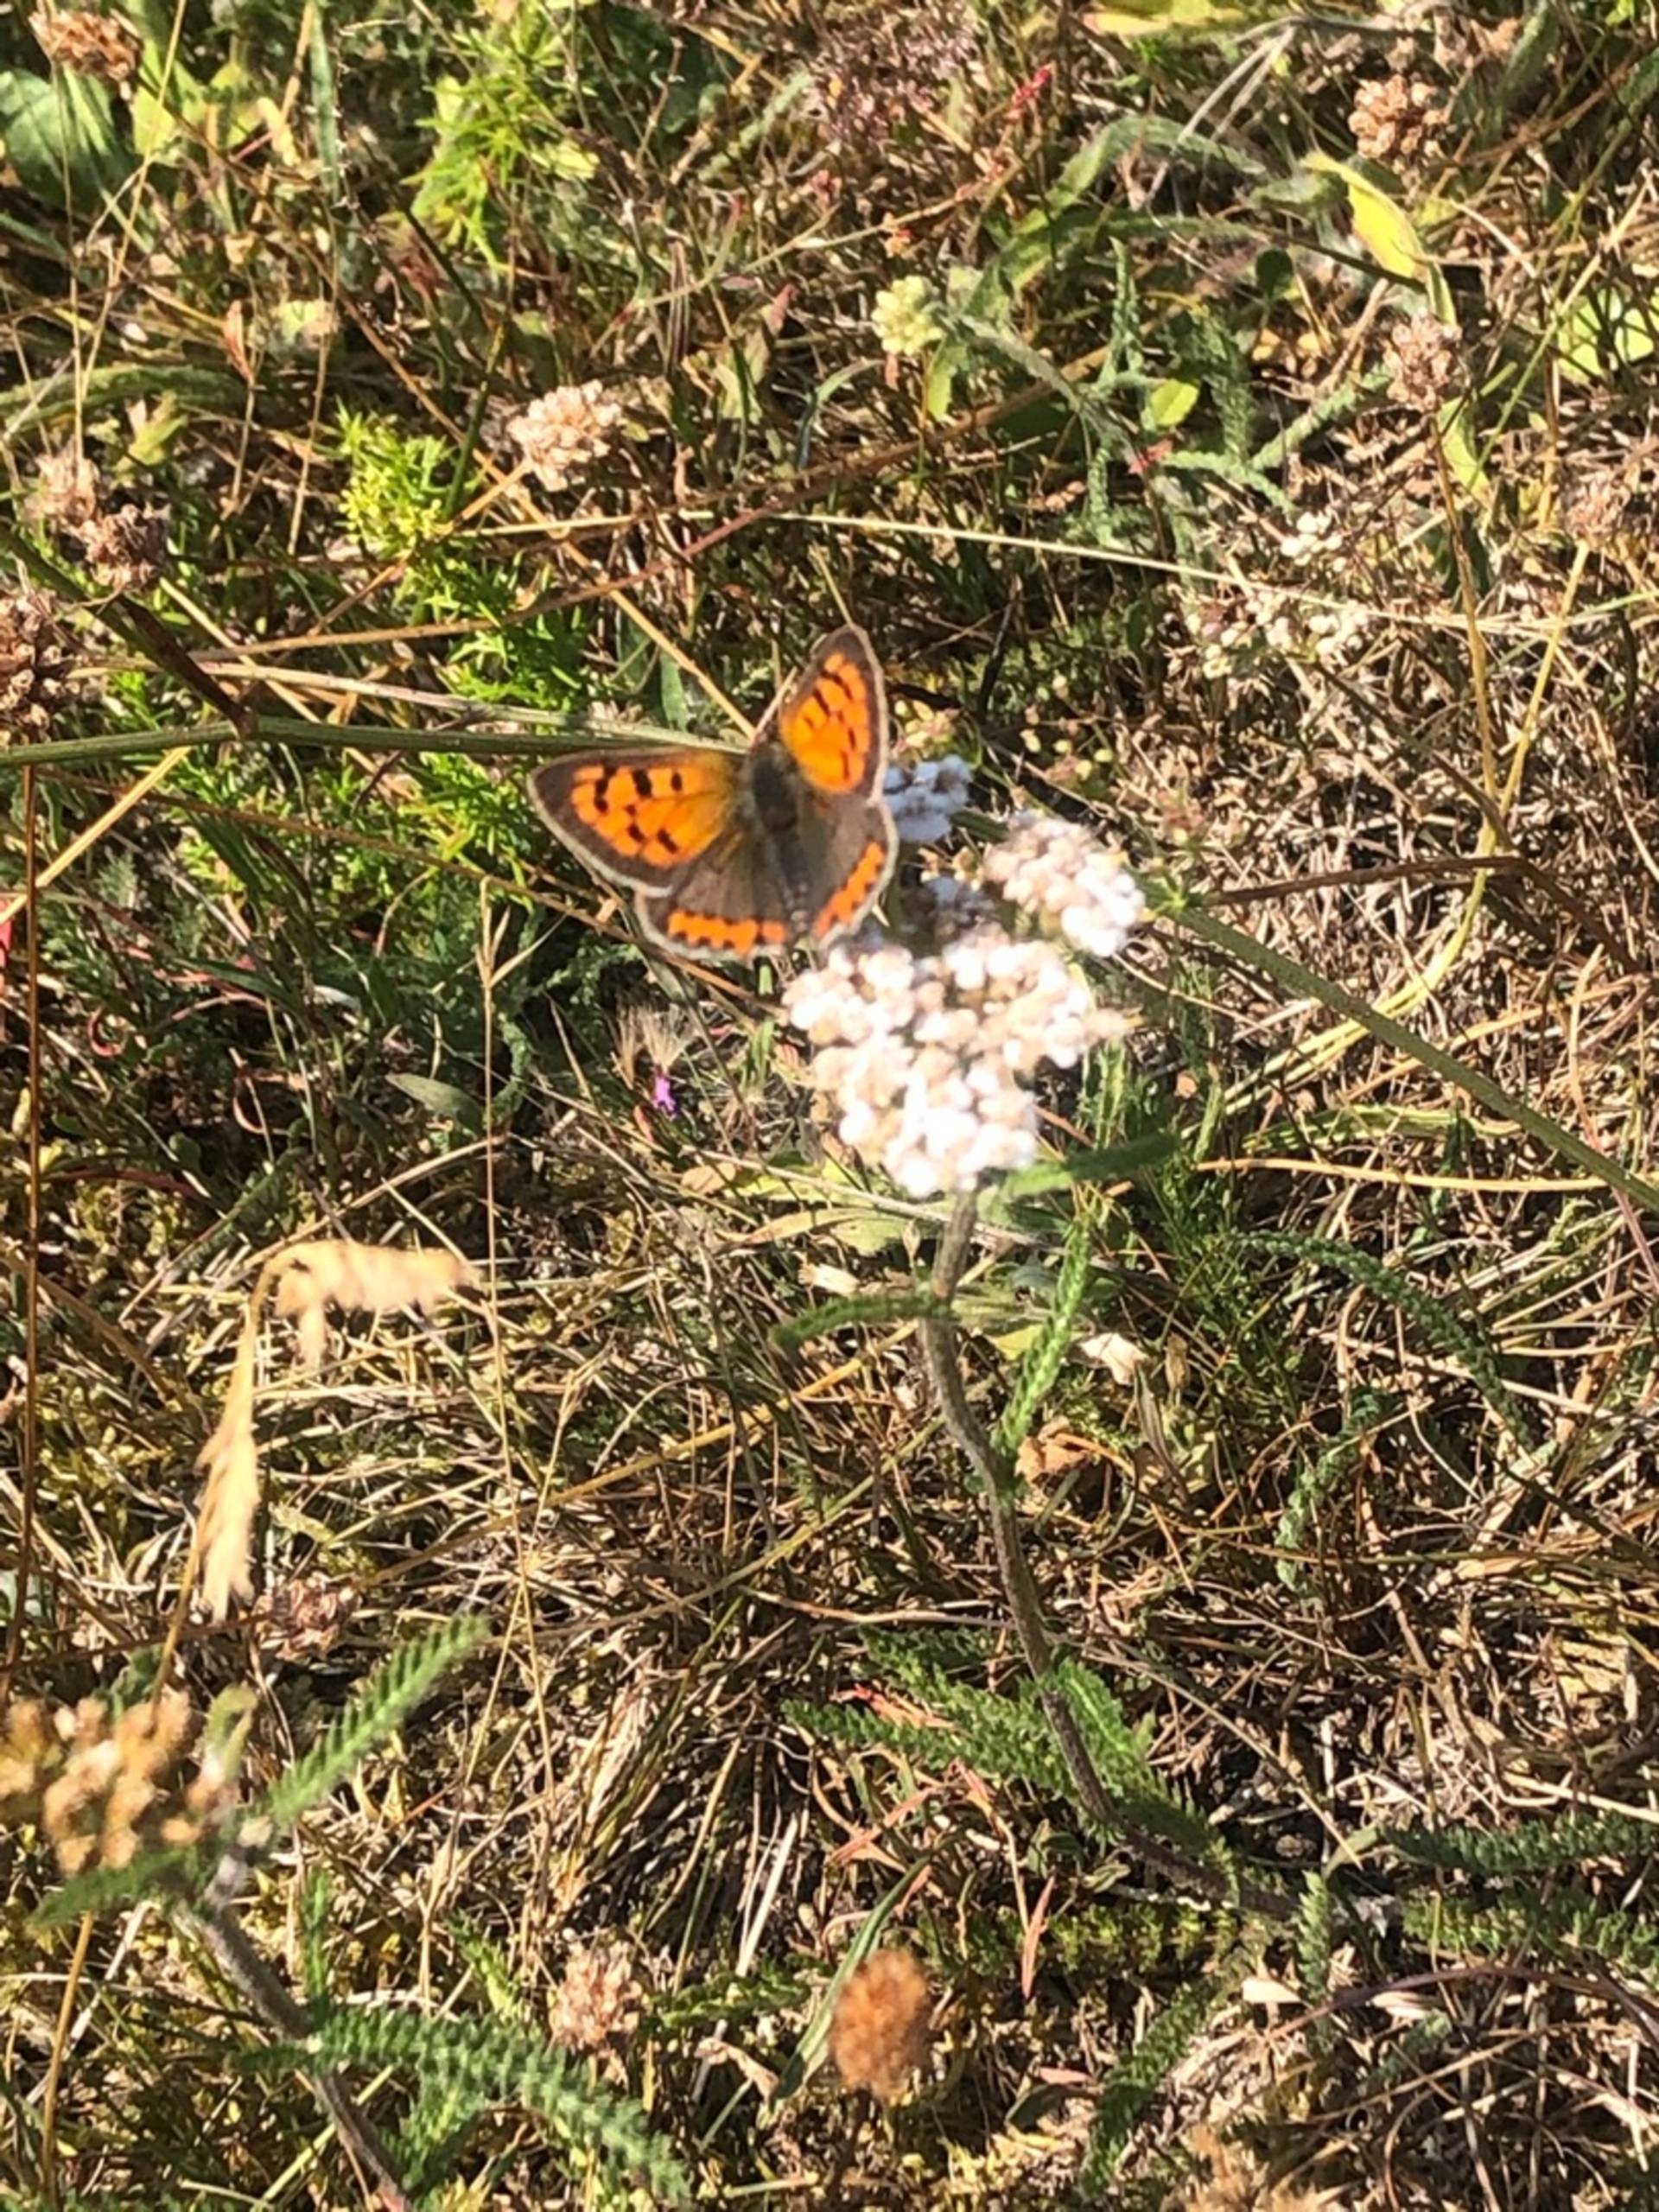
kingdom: Animalia
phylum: Arthropoda
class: Insecta
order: Lepidoptera
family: Lycaenidae
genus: Lycaena
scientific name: Lycaena phlaeas
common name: Lille ildfugl
